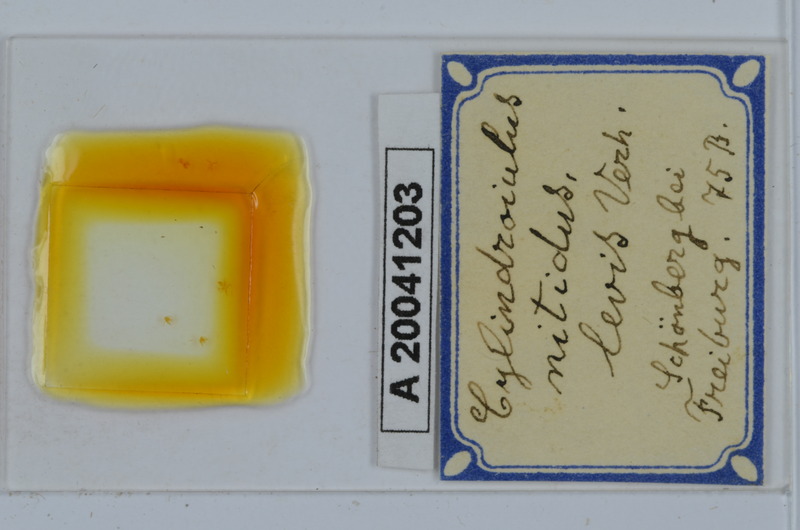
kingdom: Animalia
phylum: Arthropoda
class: Diplopoda
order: Julida
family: Julidae
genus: Allajulus
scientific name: Allajulus nitidus
